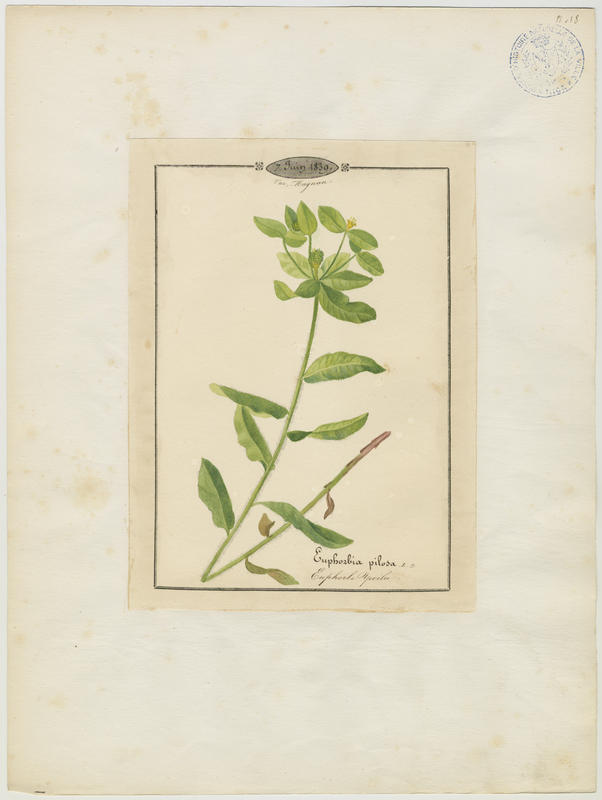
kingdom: Plantae
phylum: Tracheophyta
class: Magnoliopsida
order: Malpighiales
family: Euphorbiaceae
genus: Euphorbia
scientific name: Euphorbia
